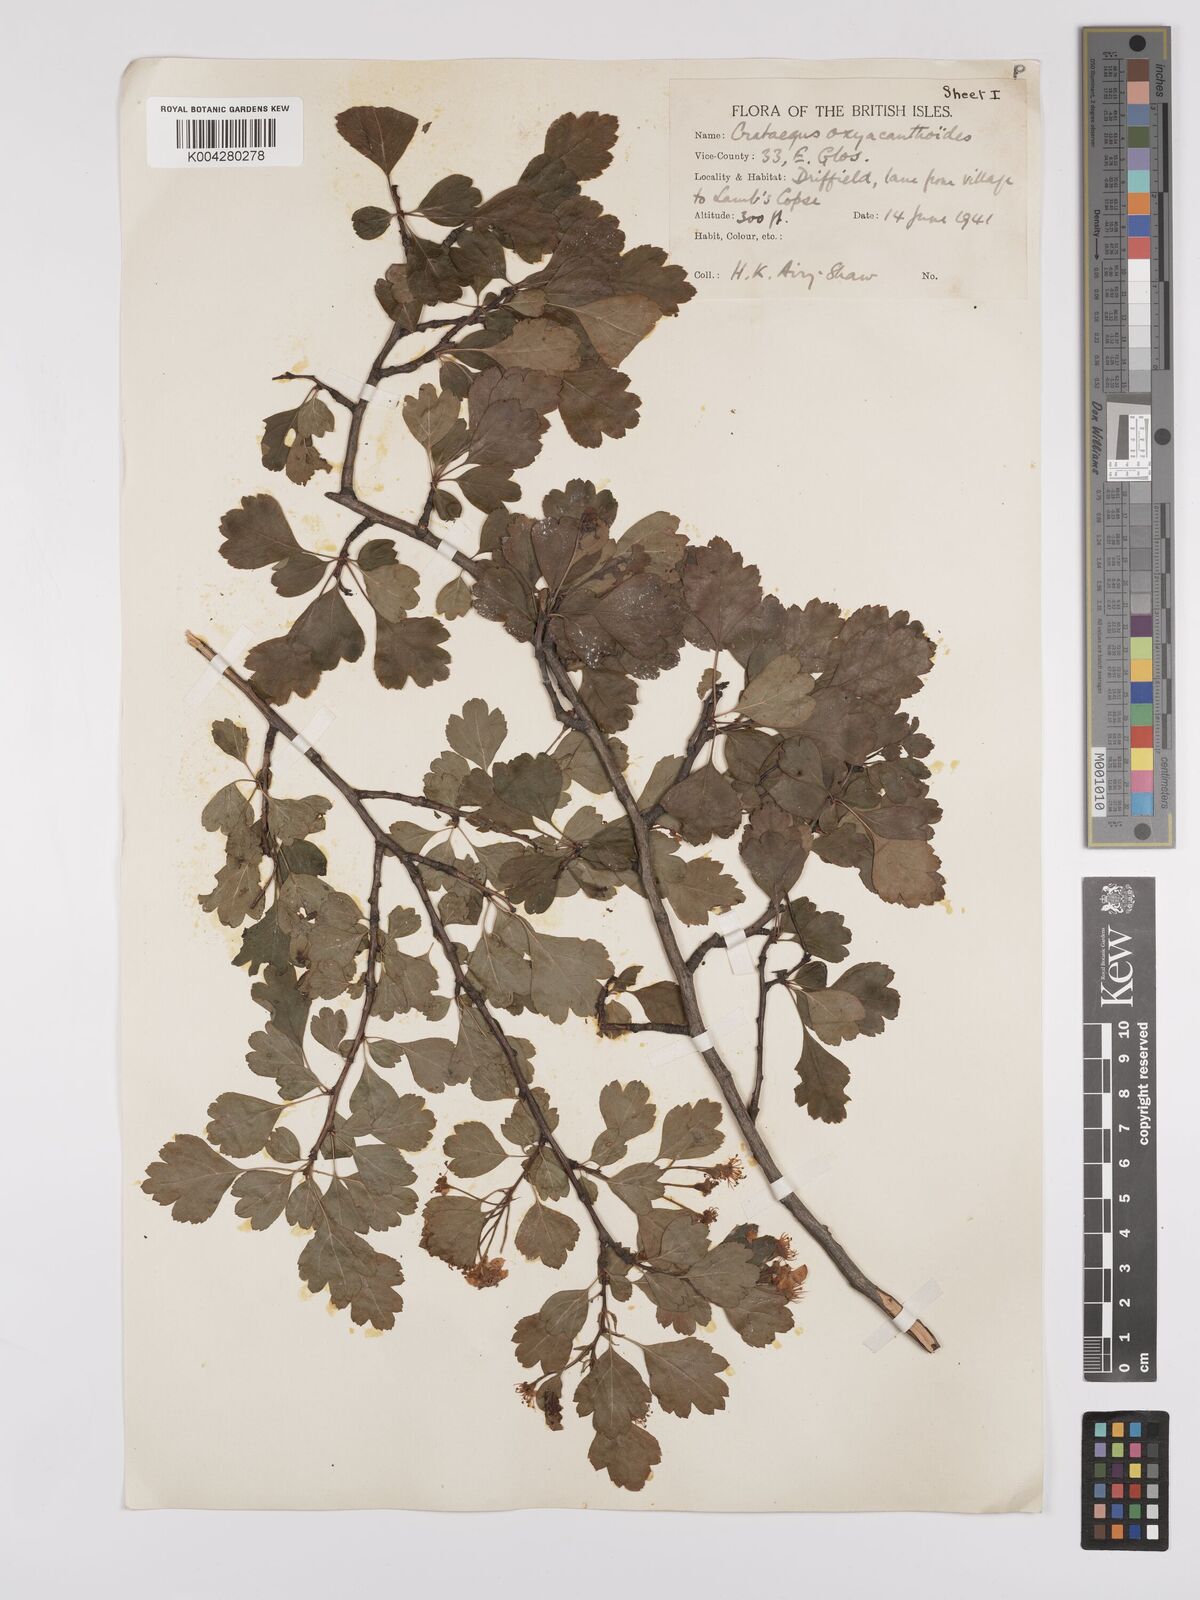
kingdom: Plantae
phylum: Tracheophyta
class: Magnoliopsida
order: Rosales
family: Rosaceae
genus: Crataegus
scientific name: Crataegus laevigata
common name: Midland hawthorn
